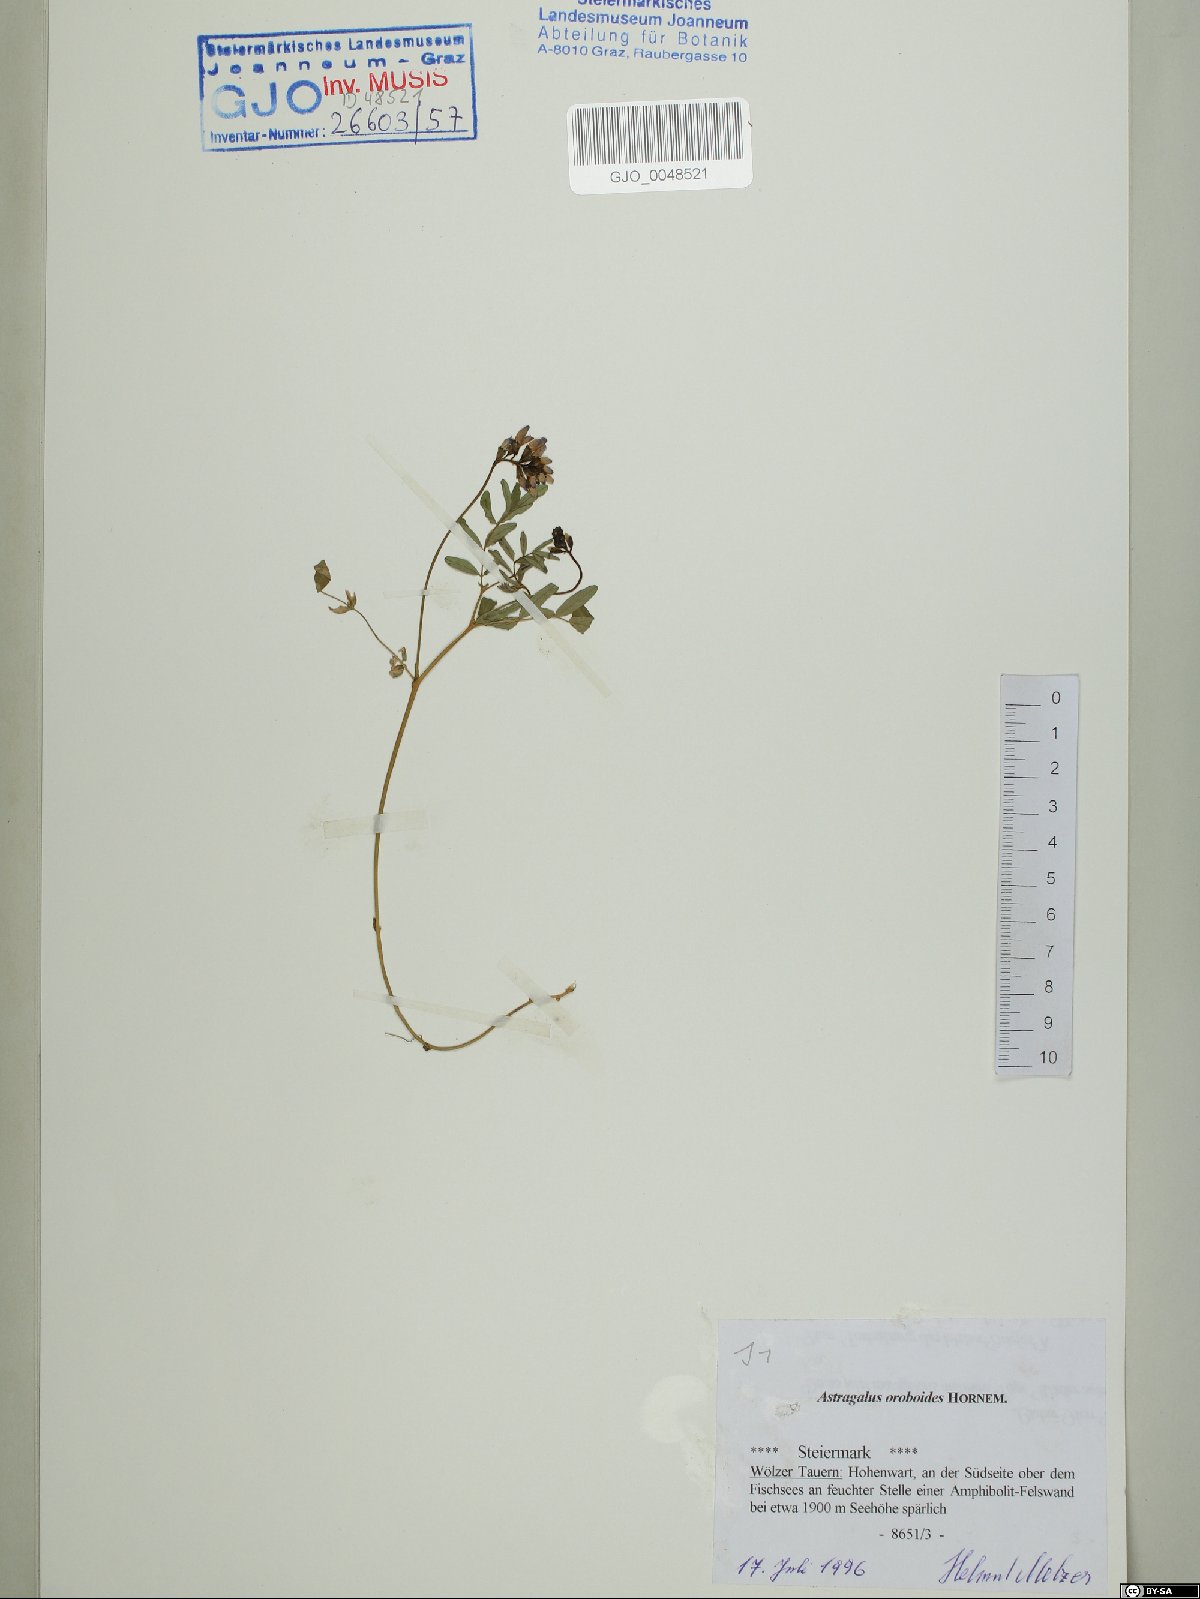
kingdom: Plantae
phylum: Tracheophyta
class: Magnoliopsida
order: Fabales
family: Fabaceae
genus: Astragalus
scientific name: Astragalus norvegicus
